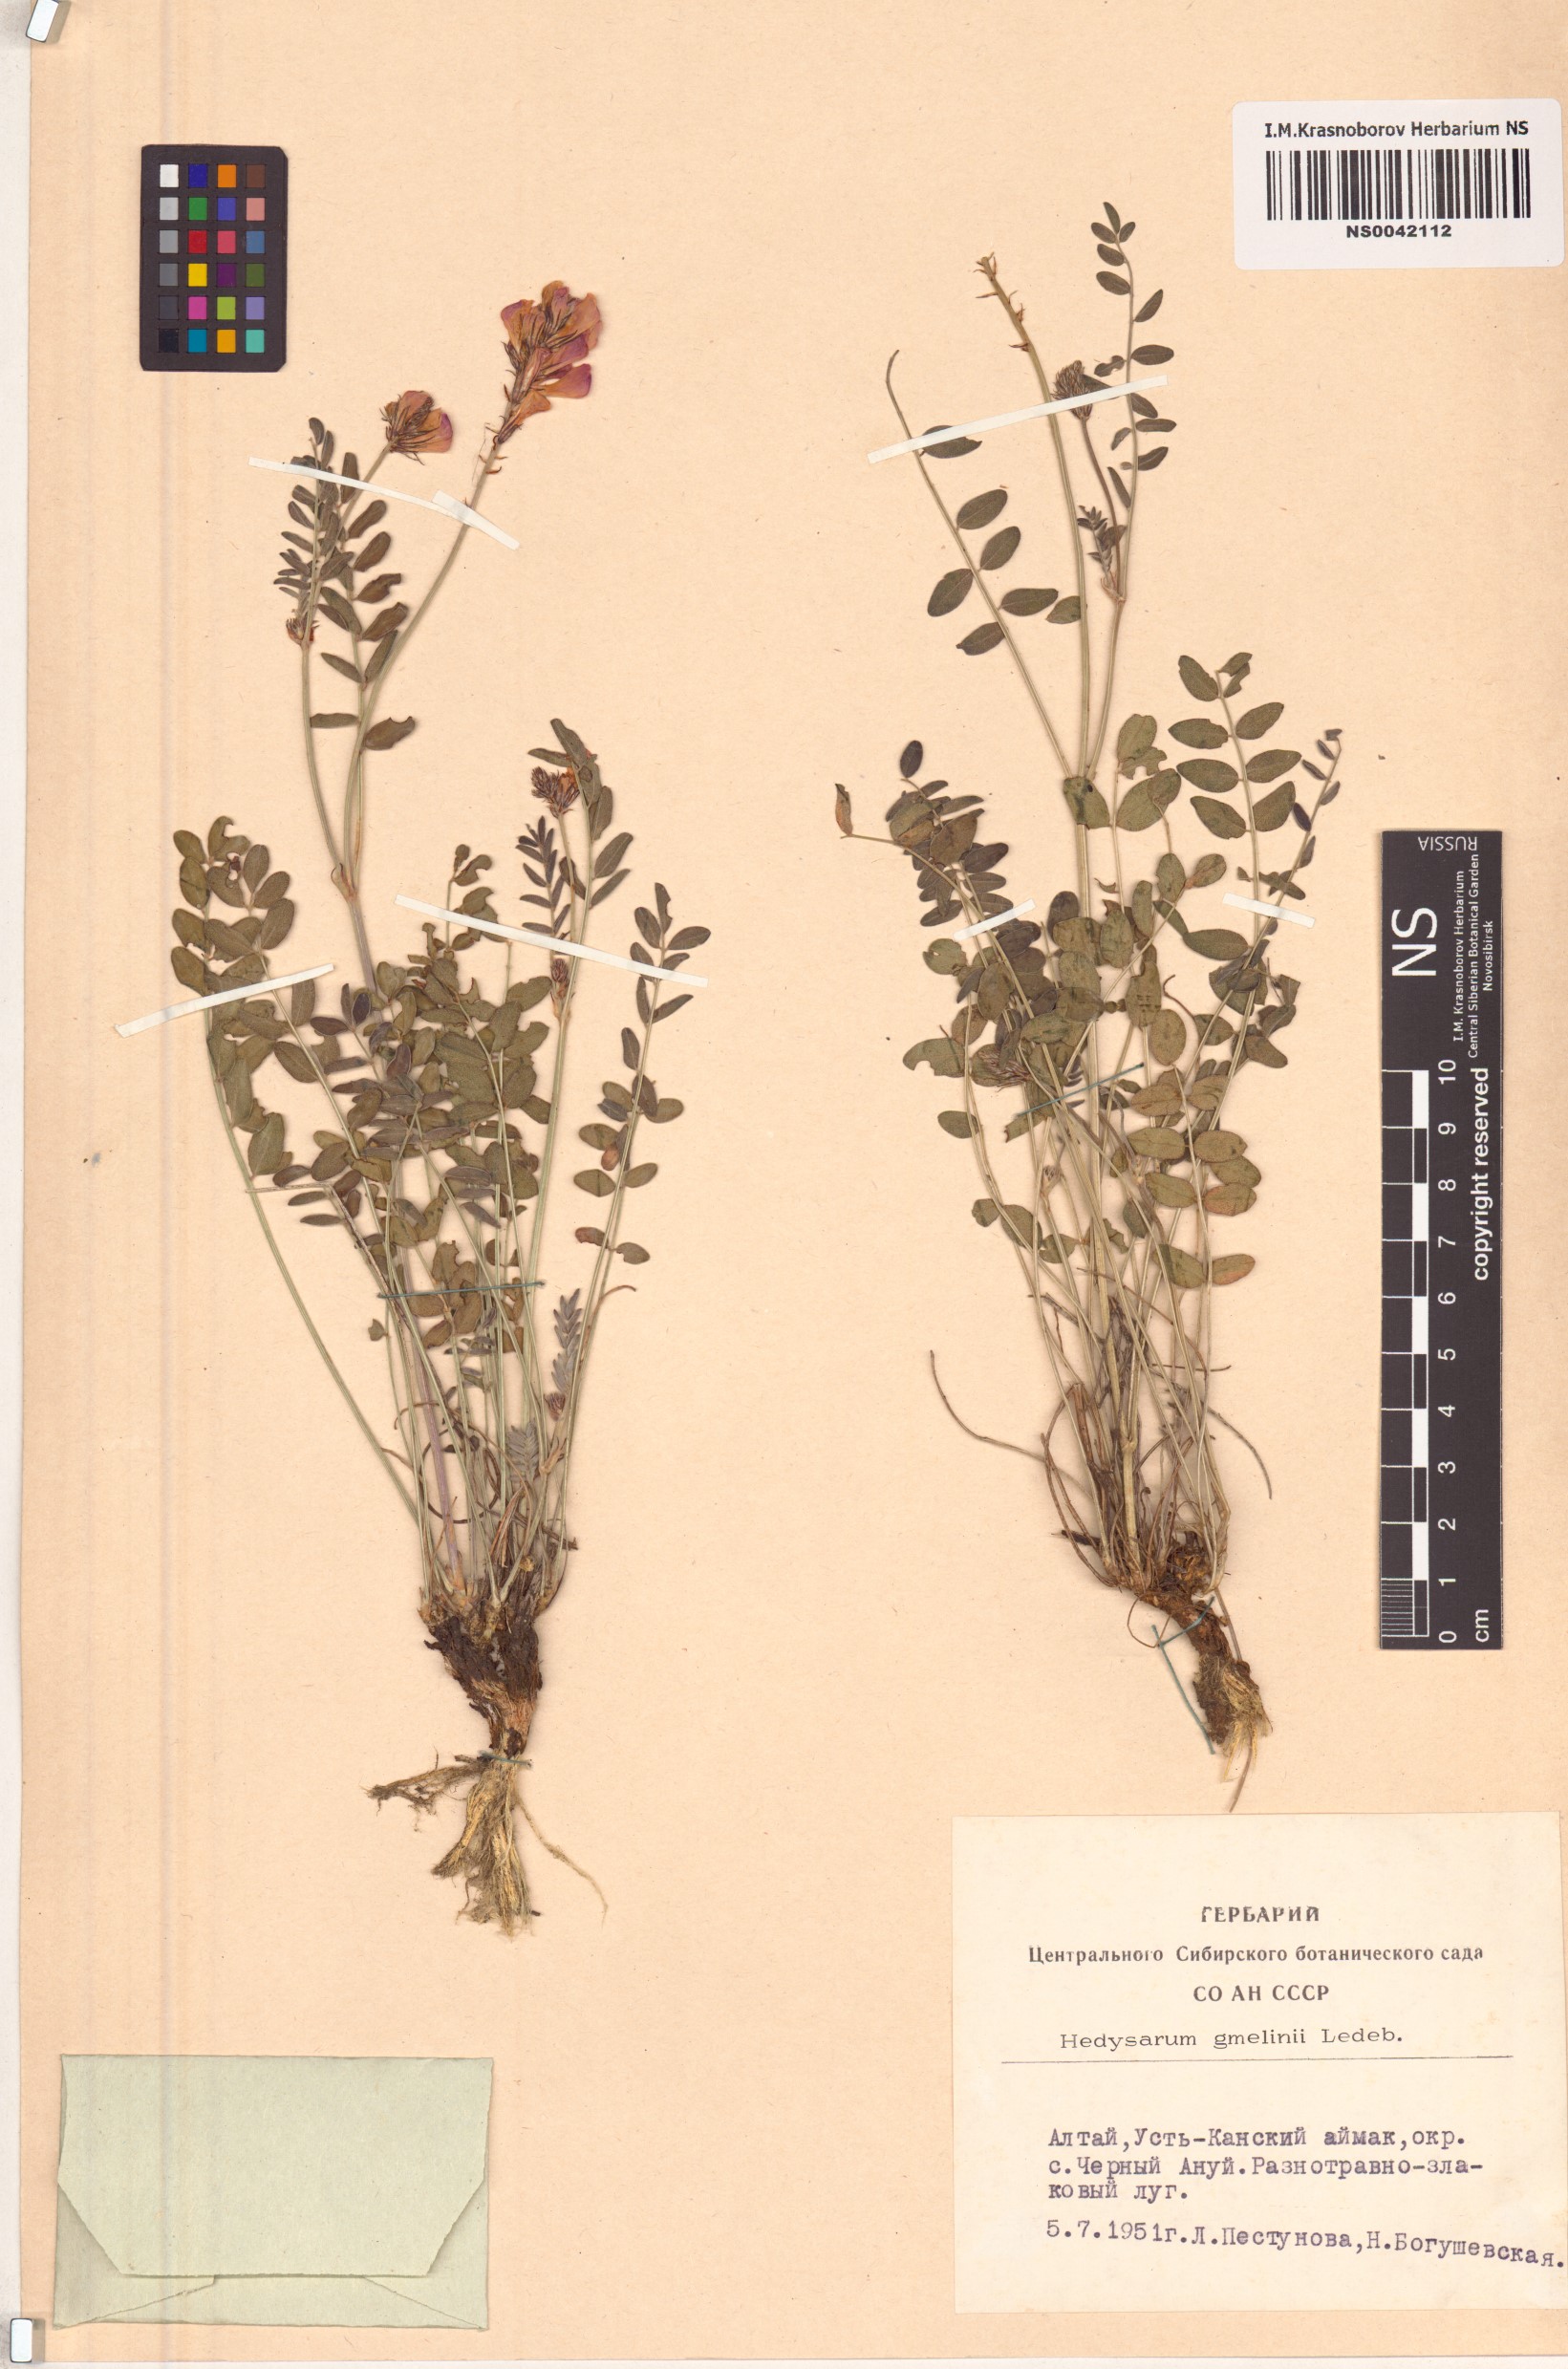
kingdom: Plantae
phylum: Tracheophyta
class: Magnoliopsida
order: Fabales
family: Fabaceae
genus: Hedysarum
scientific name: Hedysarum gmelinii
